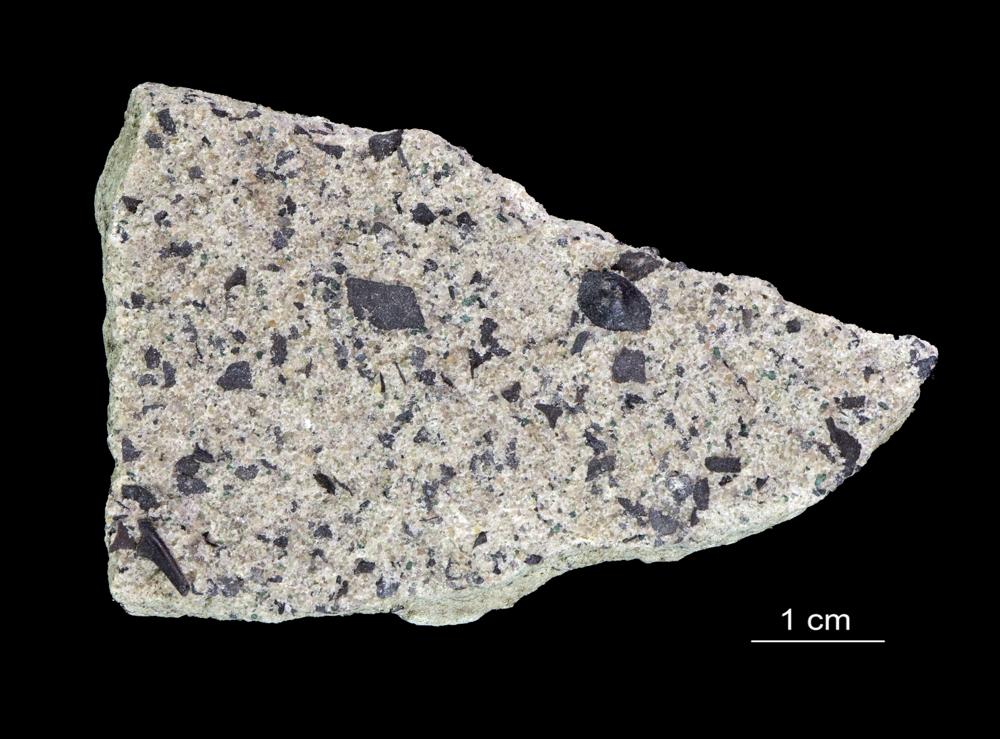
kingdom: Animalia
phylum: Brachiopoda
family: Paterinidae
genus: Mickwitzia
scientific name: Mickwitzia
